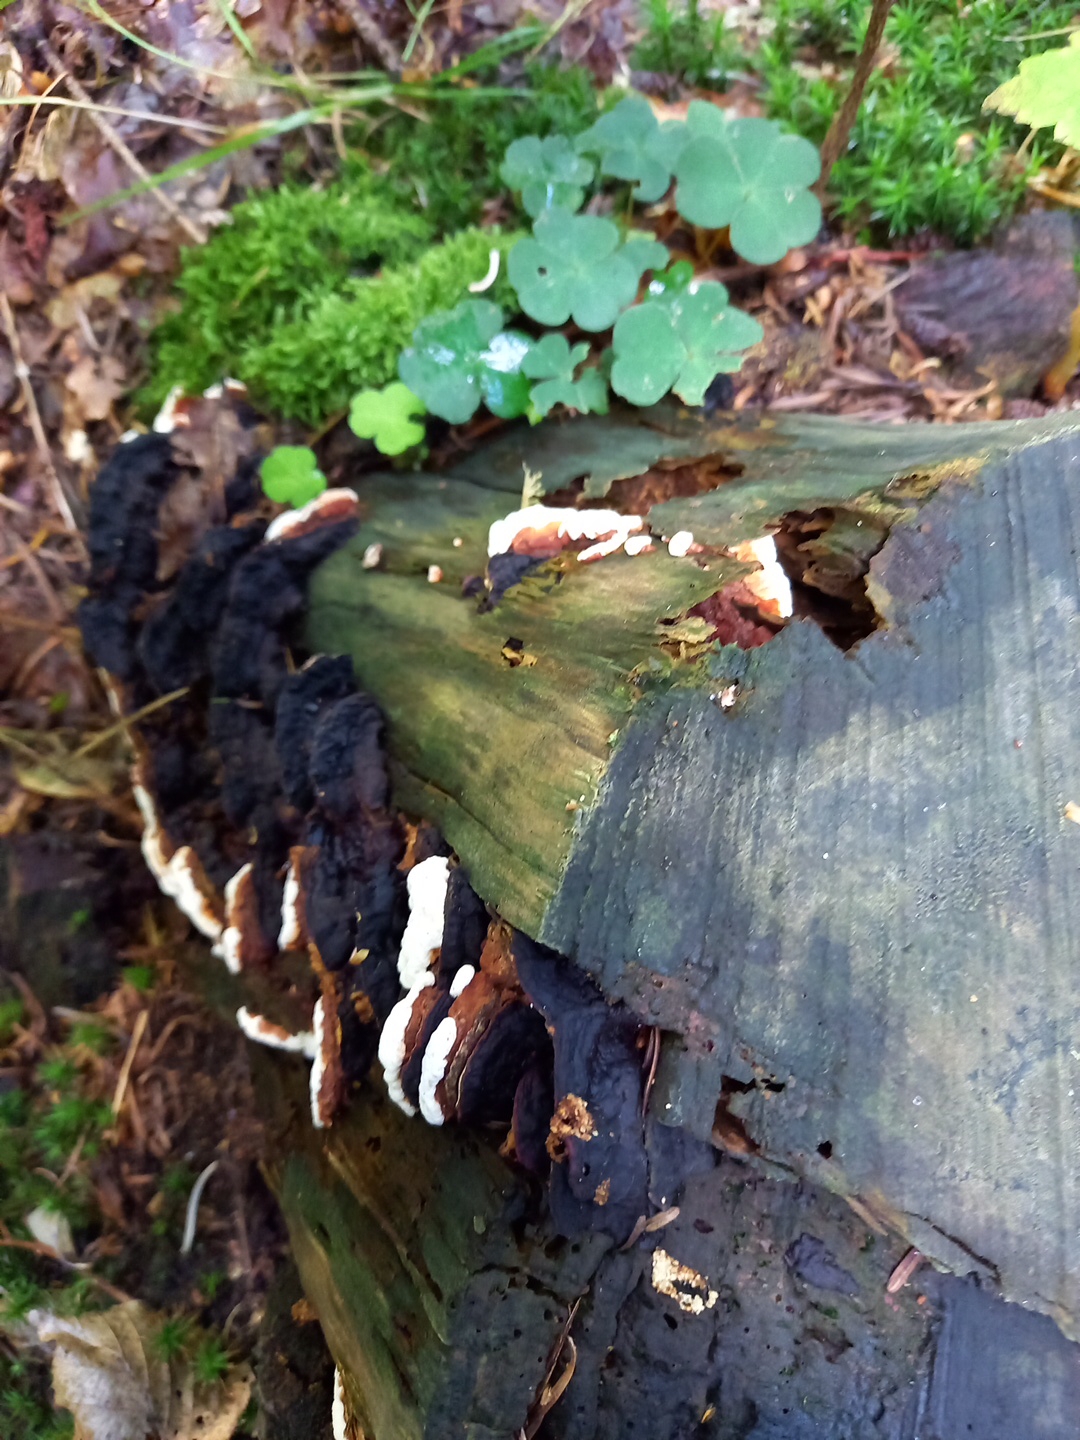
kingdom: Fungi
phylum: Basidiomycota
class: Agaricomycetes
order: Russulales
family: Bondarzewiaceae
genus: Heterobasidion
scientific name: Heterobasidion annosum
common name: almindelig rodfordærver
